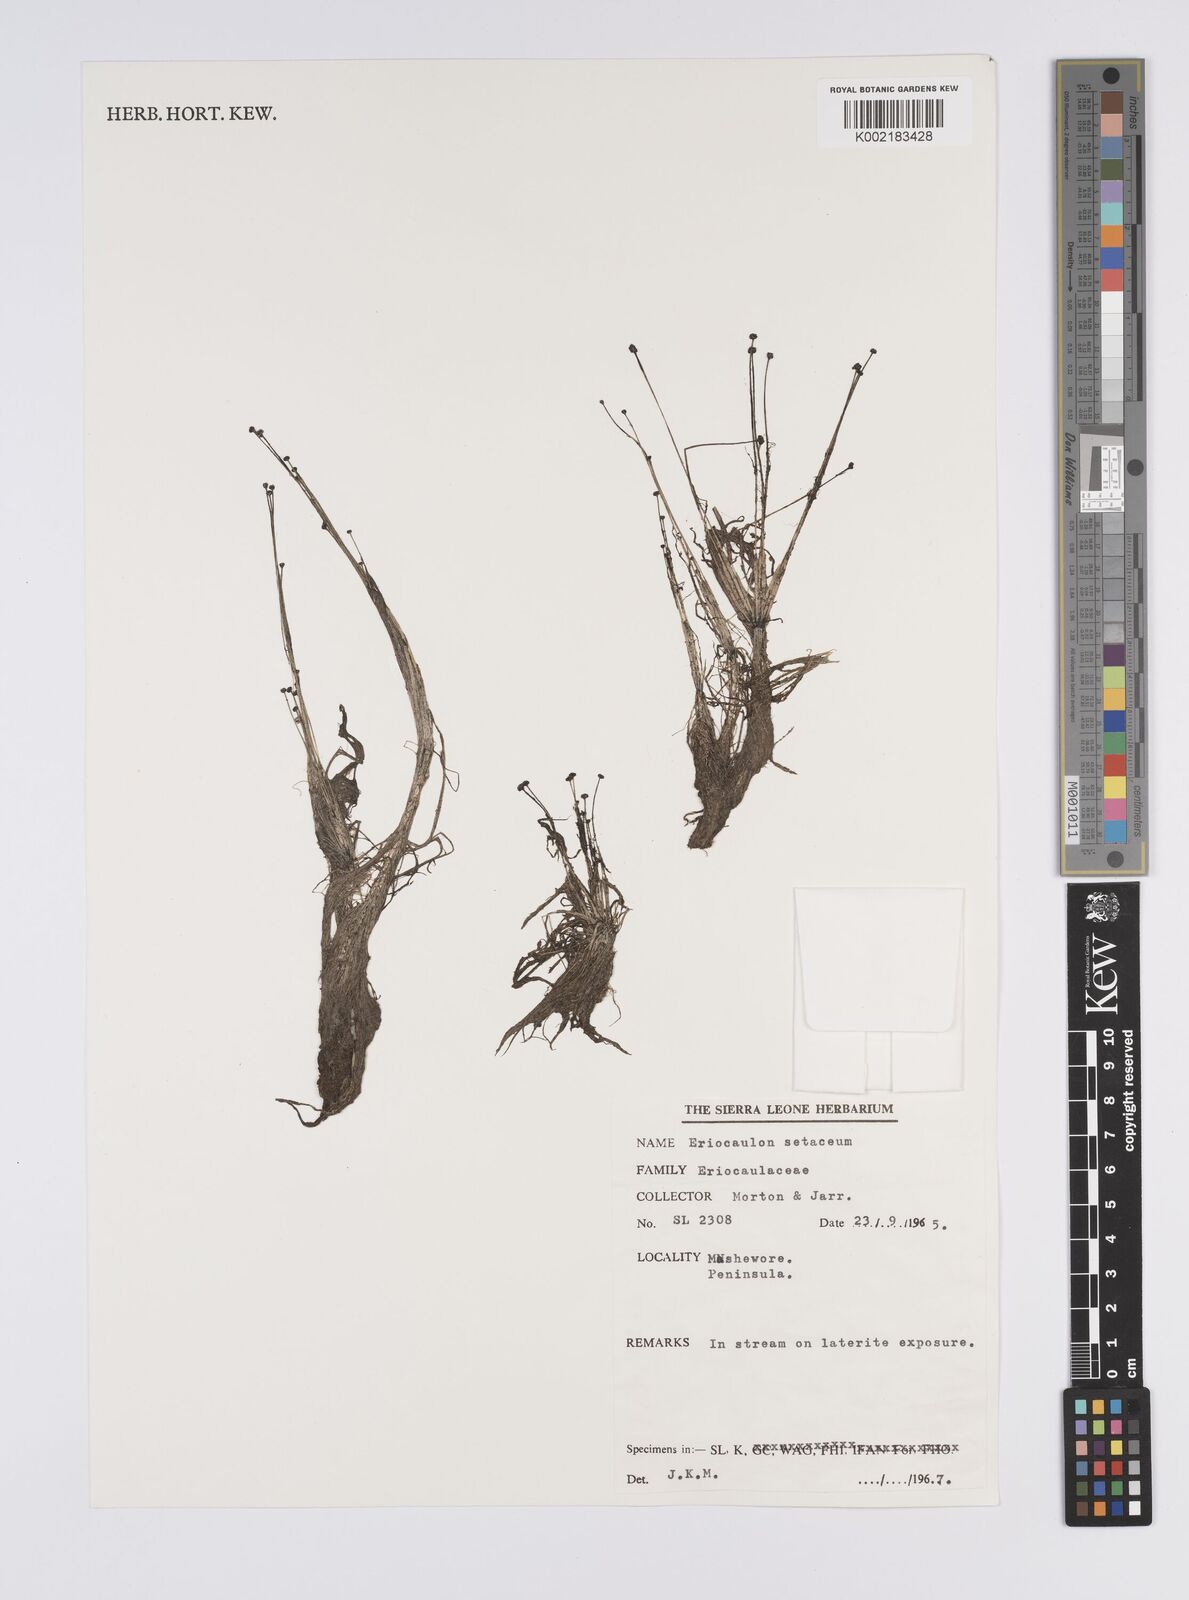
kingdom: Plantae
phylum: Tracheophyta
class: Liliopsida
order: Poales
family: Eriocaulaceae
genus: Eriocaulon
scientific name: Eriocaulon setaceum
